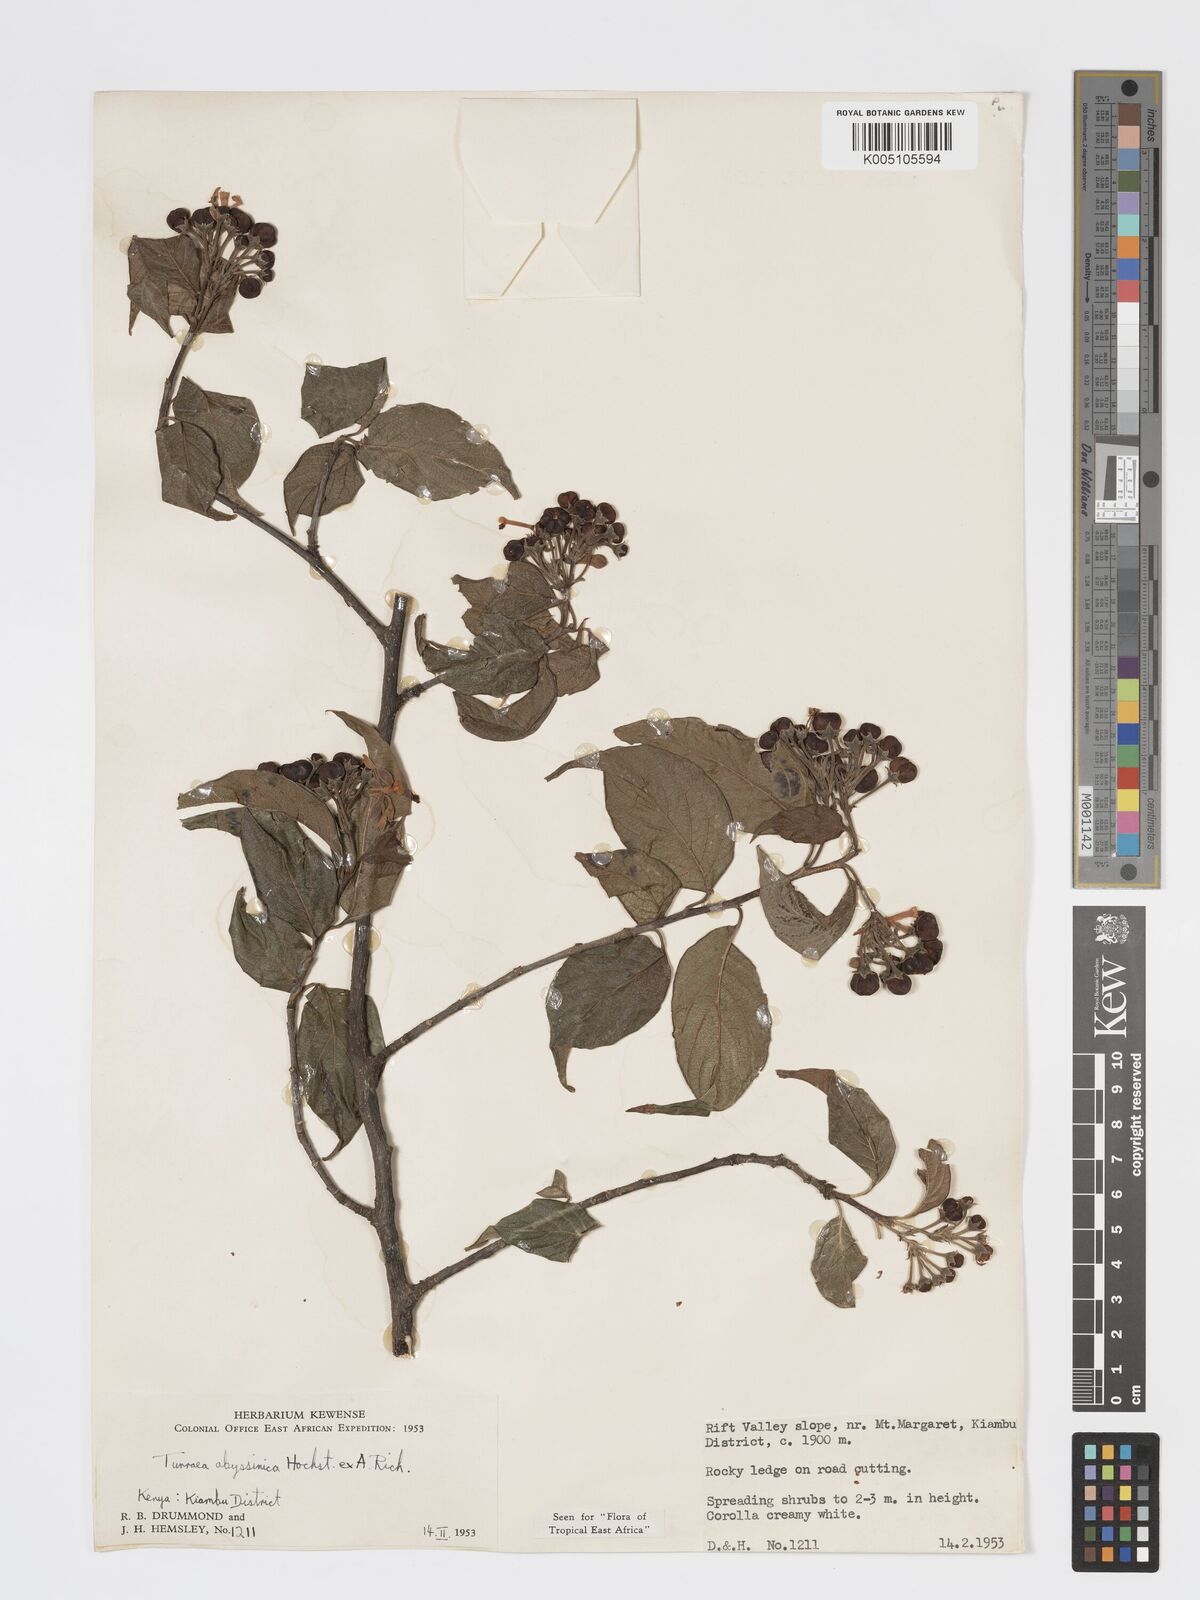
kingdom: Plantae
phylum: Tracheophyta
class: Magnoliopsida
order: Sapindales
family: Meliaceae
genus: Turraea
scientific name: Turraea abyssinica
